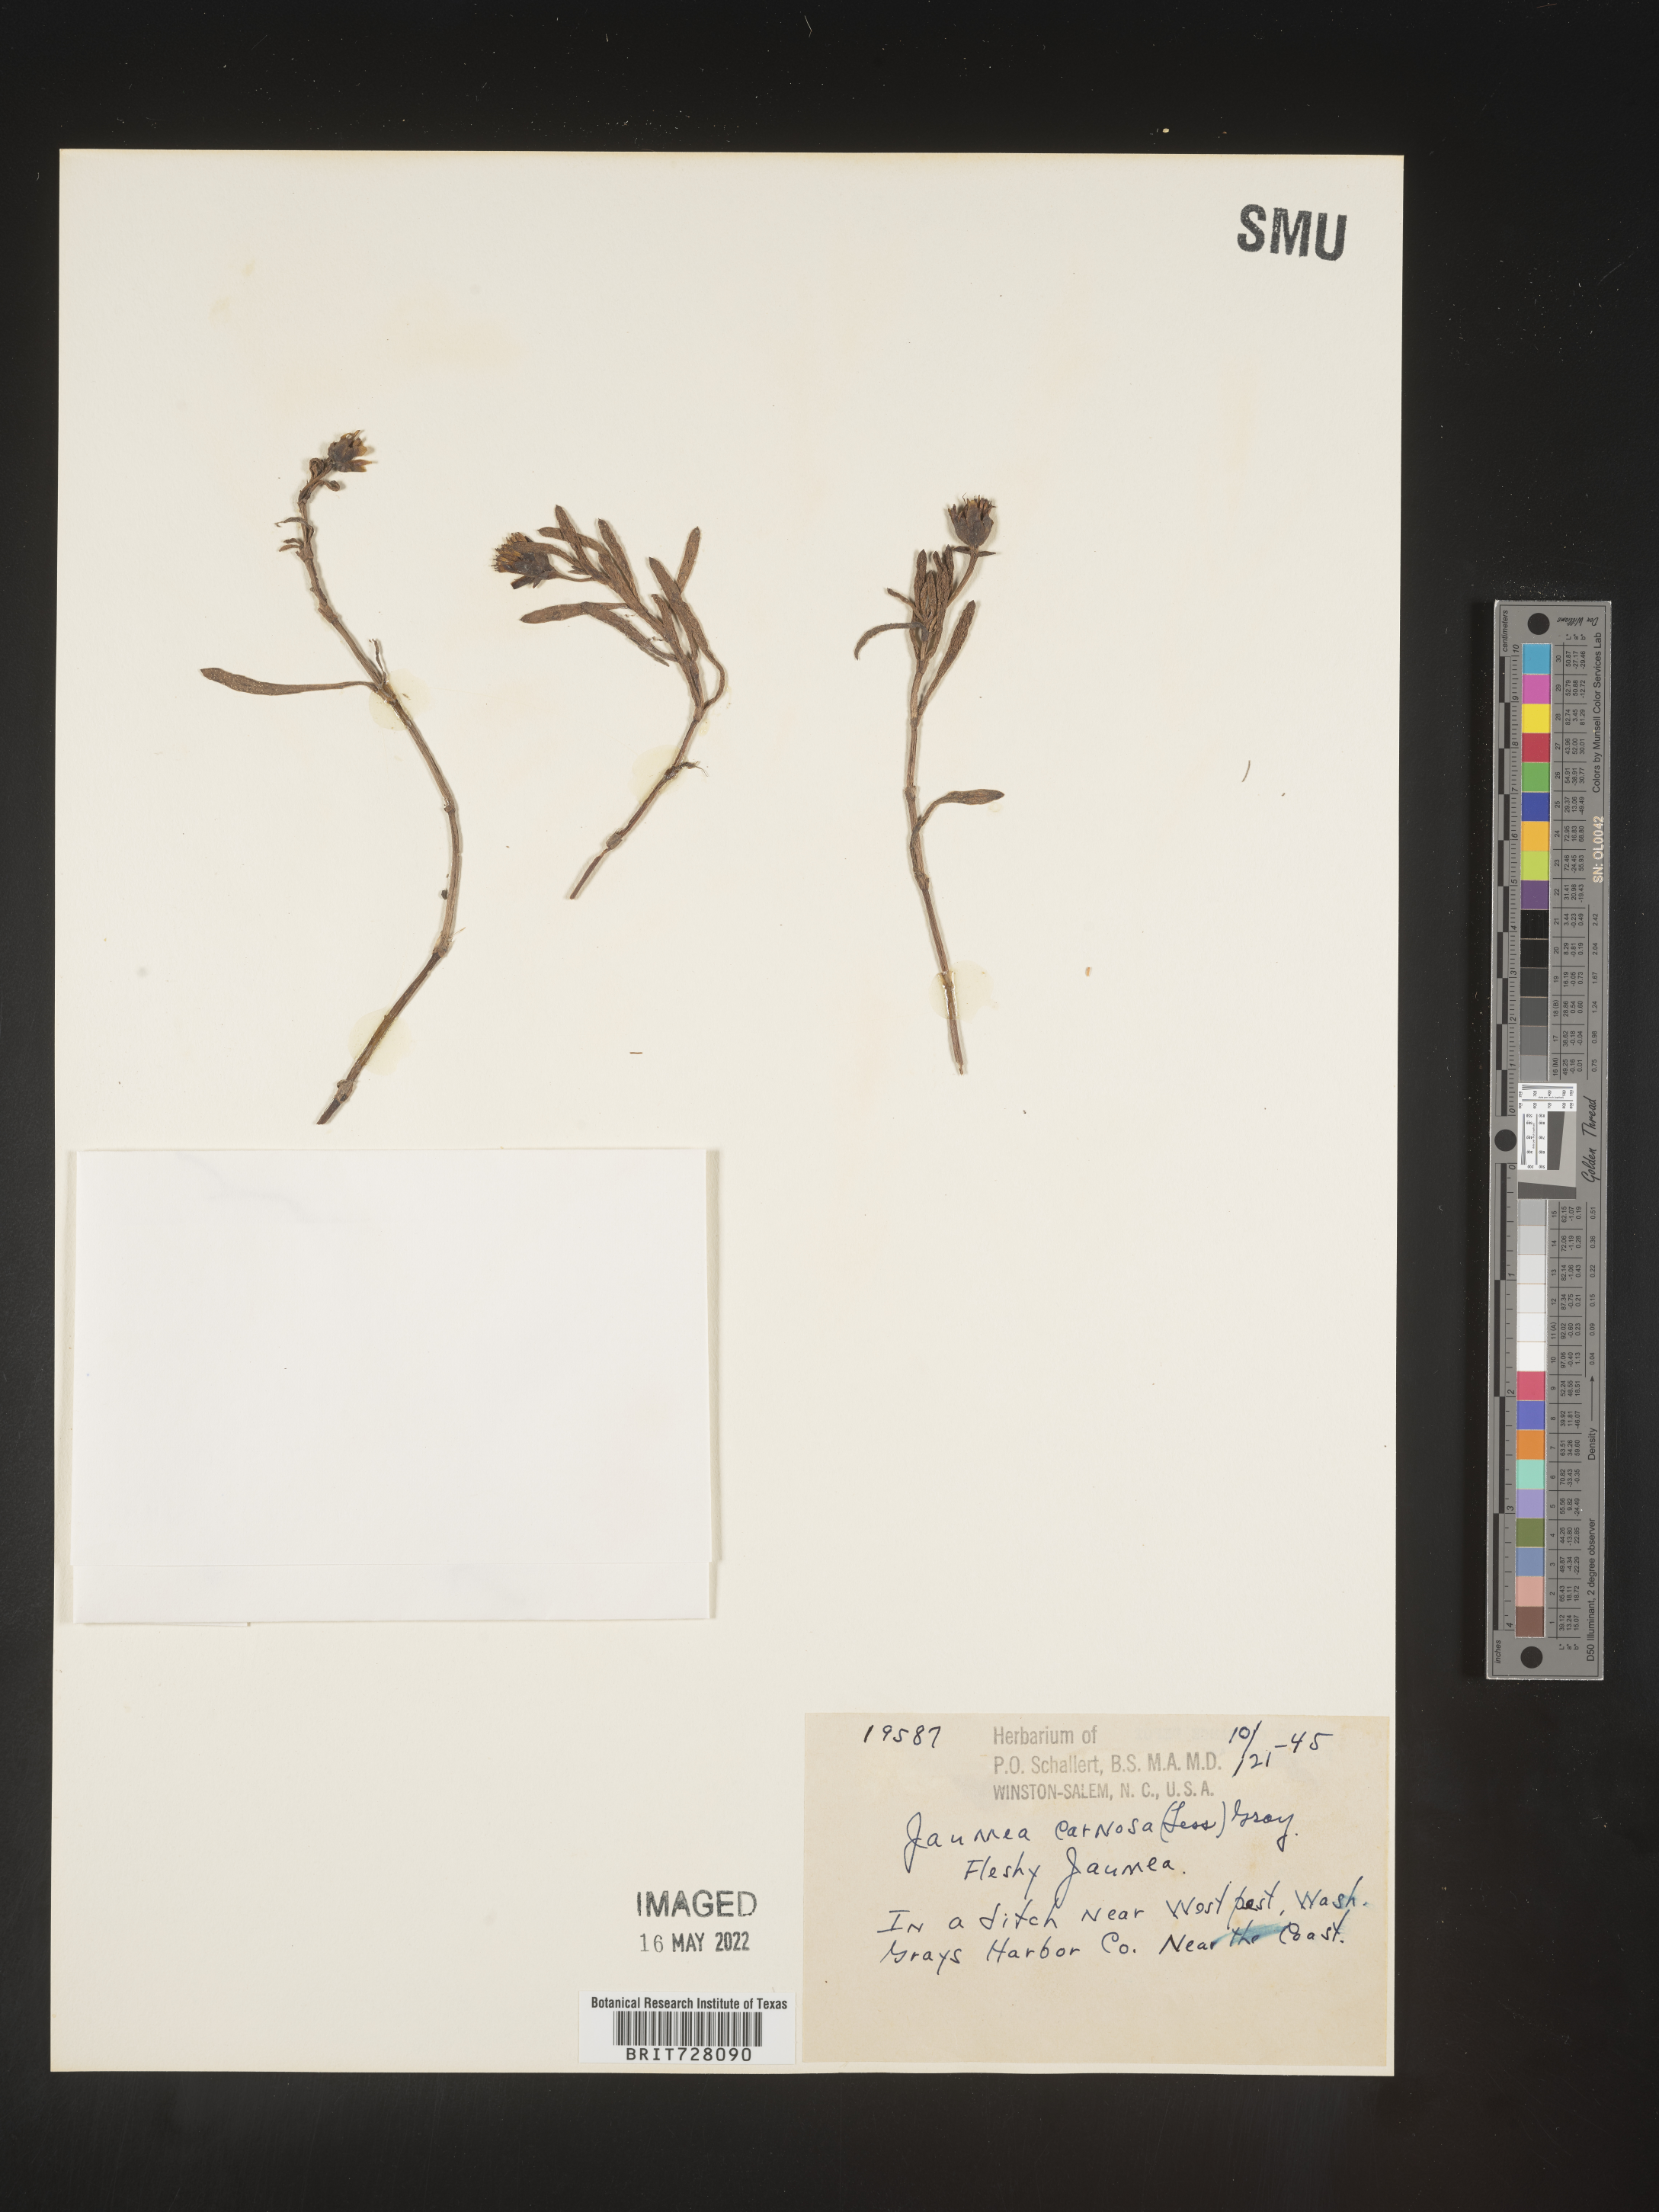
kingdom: Plantae
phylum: Tracheophyta
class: Magnoliopsida
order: Asterales
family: Asteraceae
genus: Jaumea
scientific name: Jaumea
